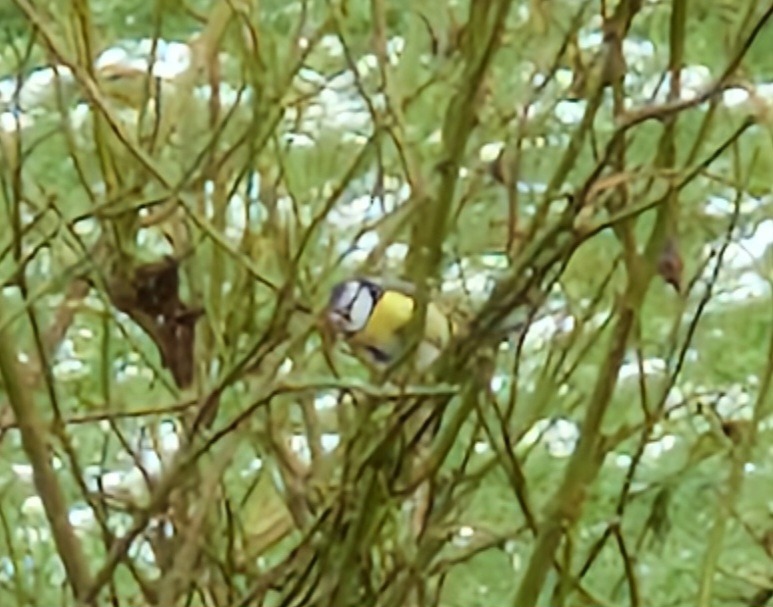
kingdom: Animalia
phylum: Chordata
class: Aves
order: Passeriformes
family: Paridae
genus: Cyanistes
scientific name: Cyanistes caeruleus
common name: Blåmejse
